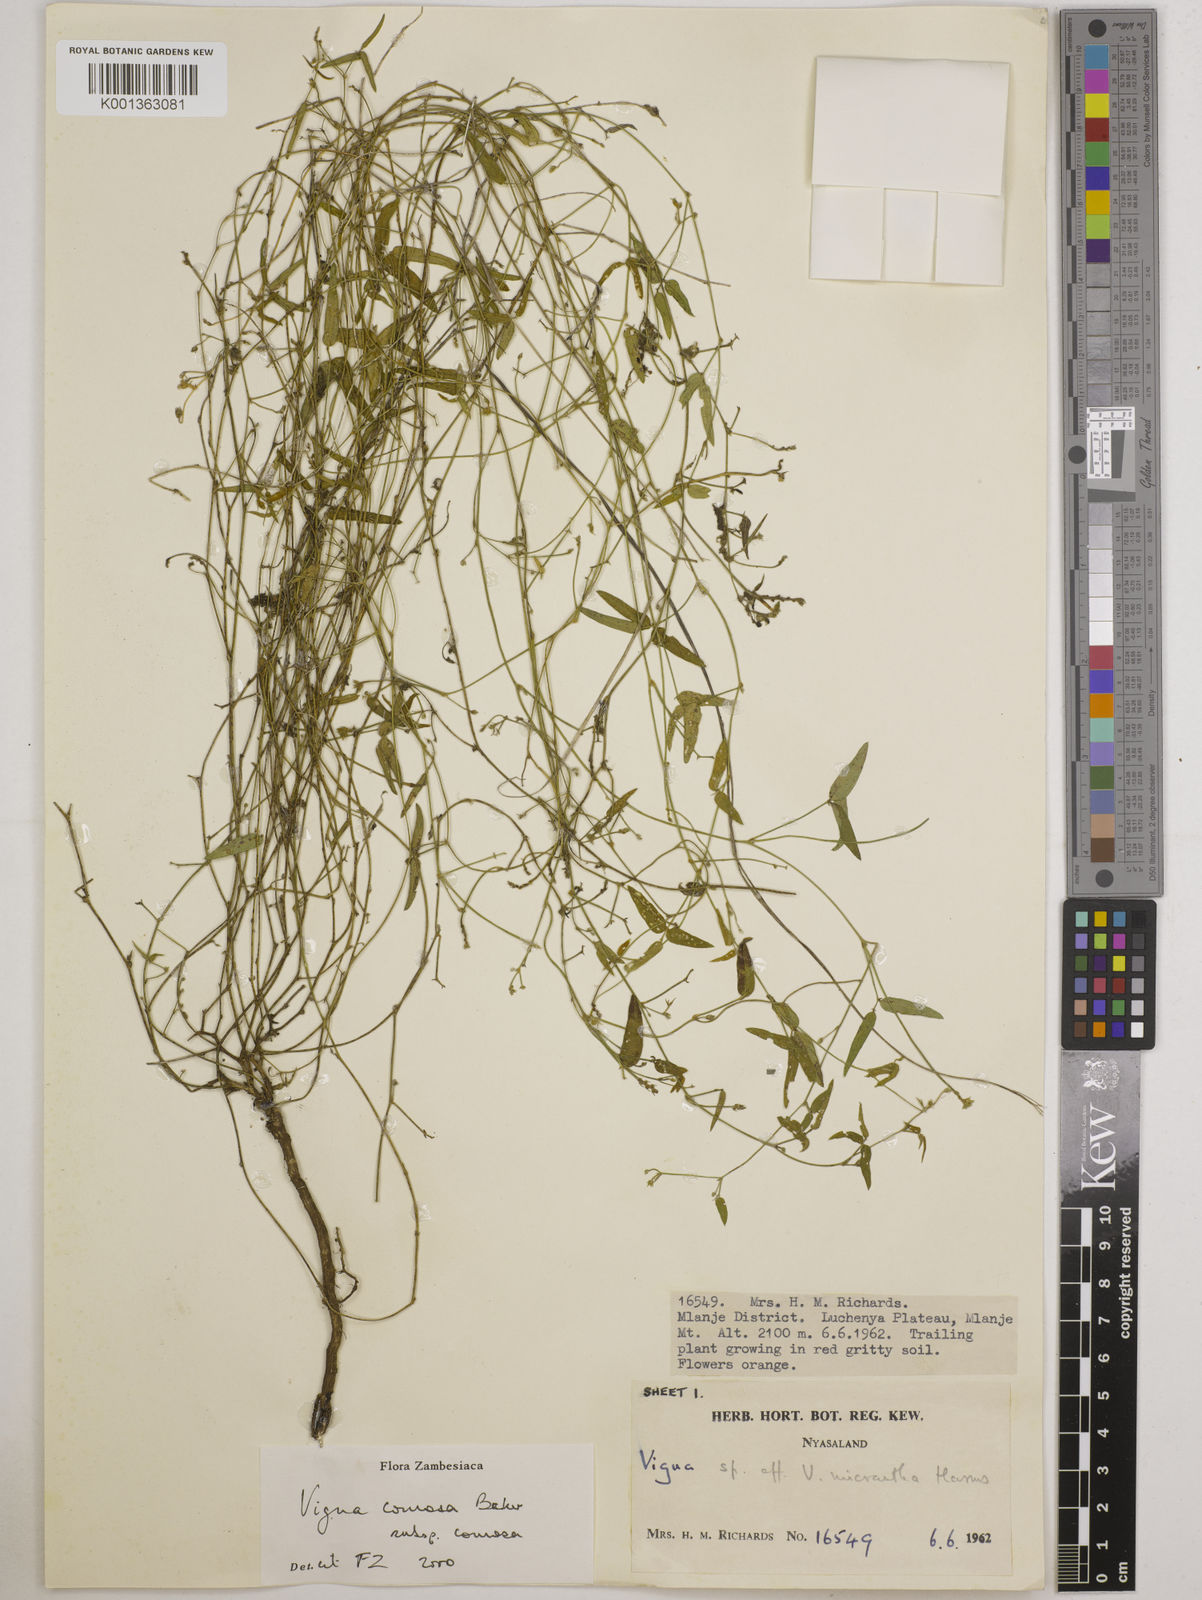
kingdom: Plantae
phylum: Tracheophyta
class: Magnoliopsida
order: Fabales
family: Fabaceae
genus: Vigna
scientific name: Vigna comosa
